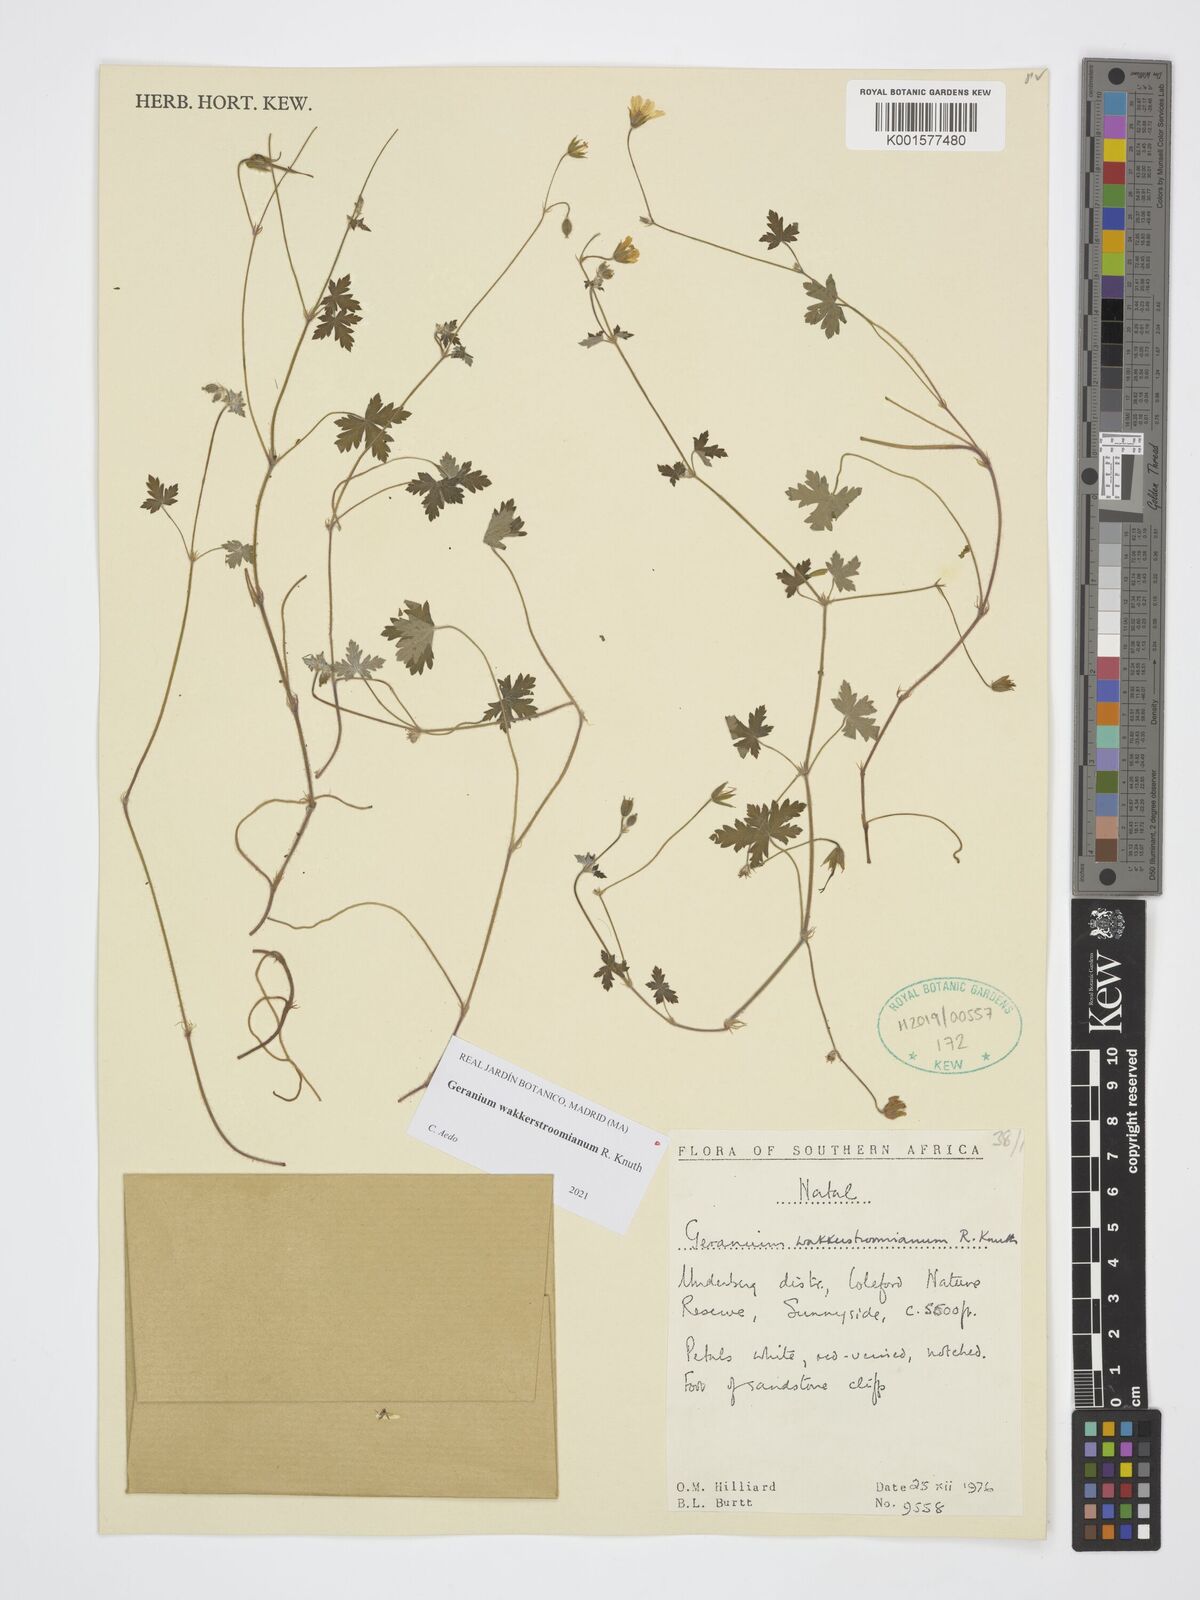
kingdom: Plantae
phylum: Tracheophyta
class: Magnoliopsida
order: Geraniales
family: Geraniaceae
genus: Geranium
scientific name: Geranium wakkerstroomianum
